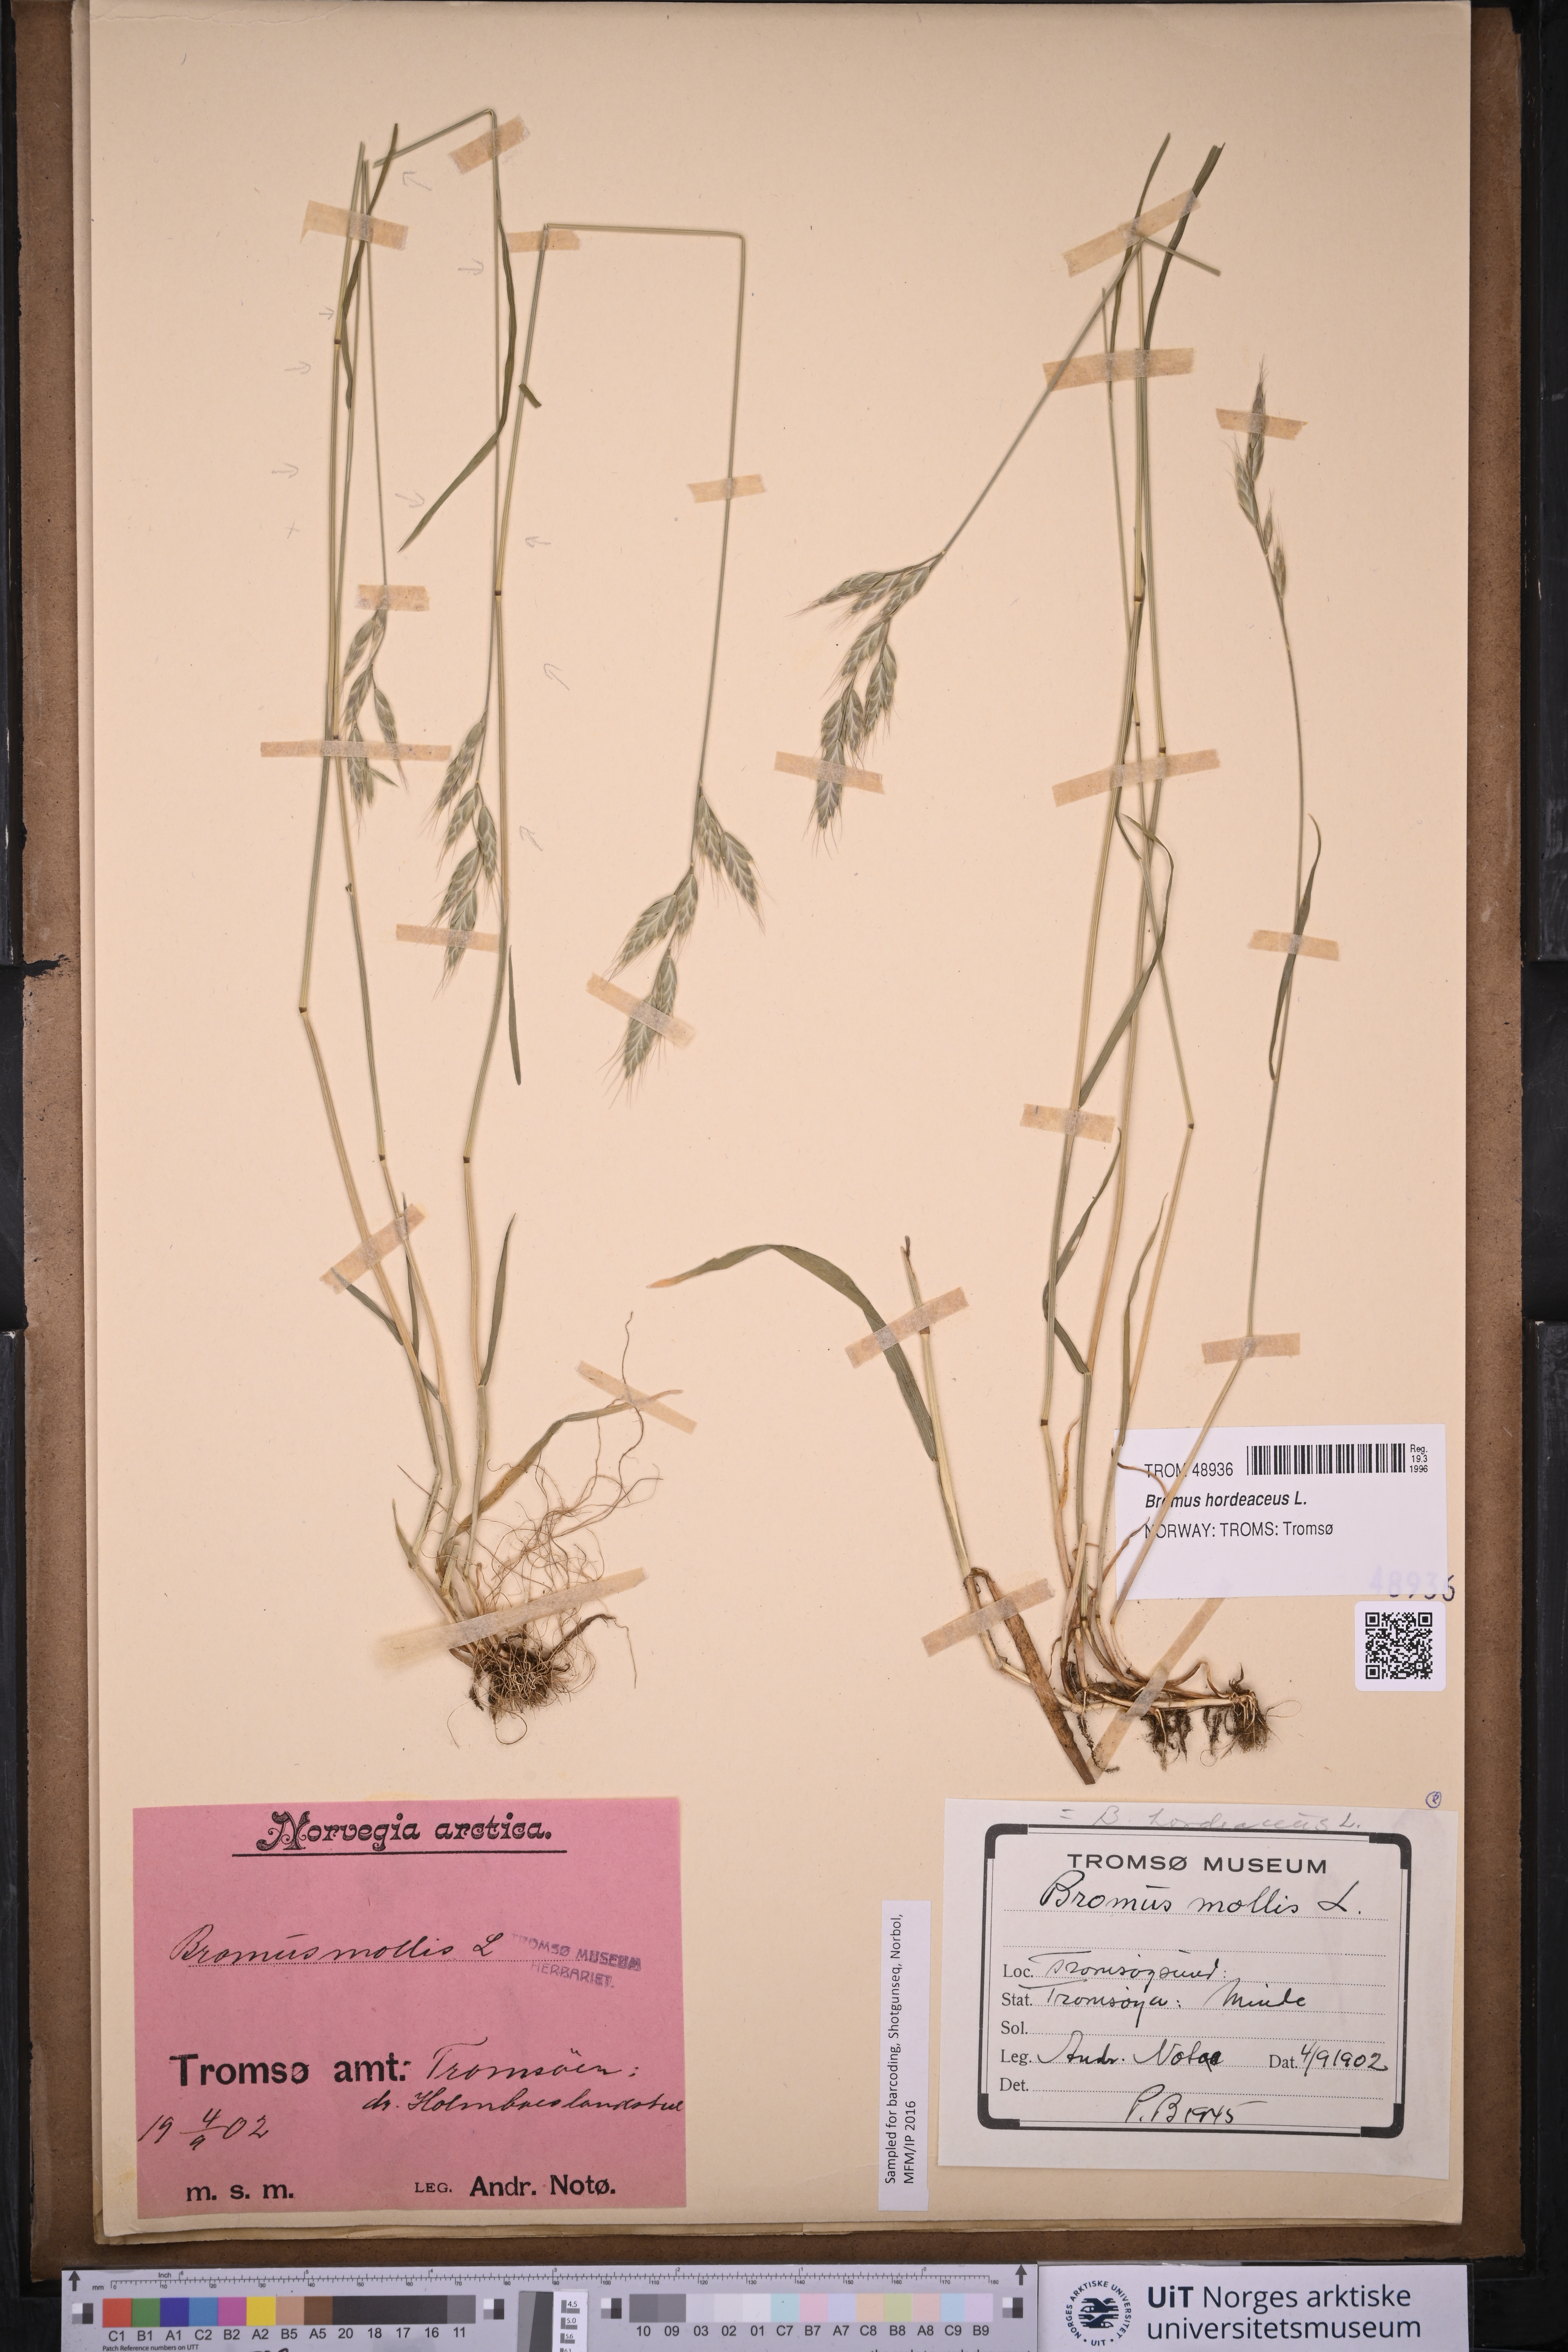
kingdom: Plantae
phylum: Tracheophyta
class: Liliopsida
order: Poales
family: Poaceae
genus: Bromus
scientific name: Bromus hordeaceus
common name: Soft brome
